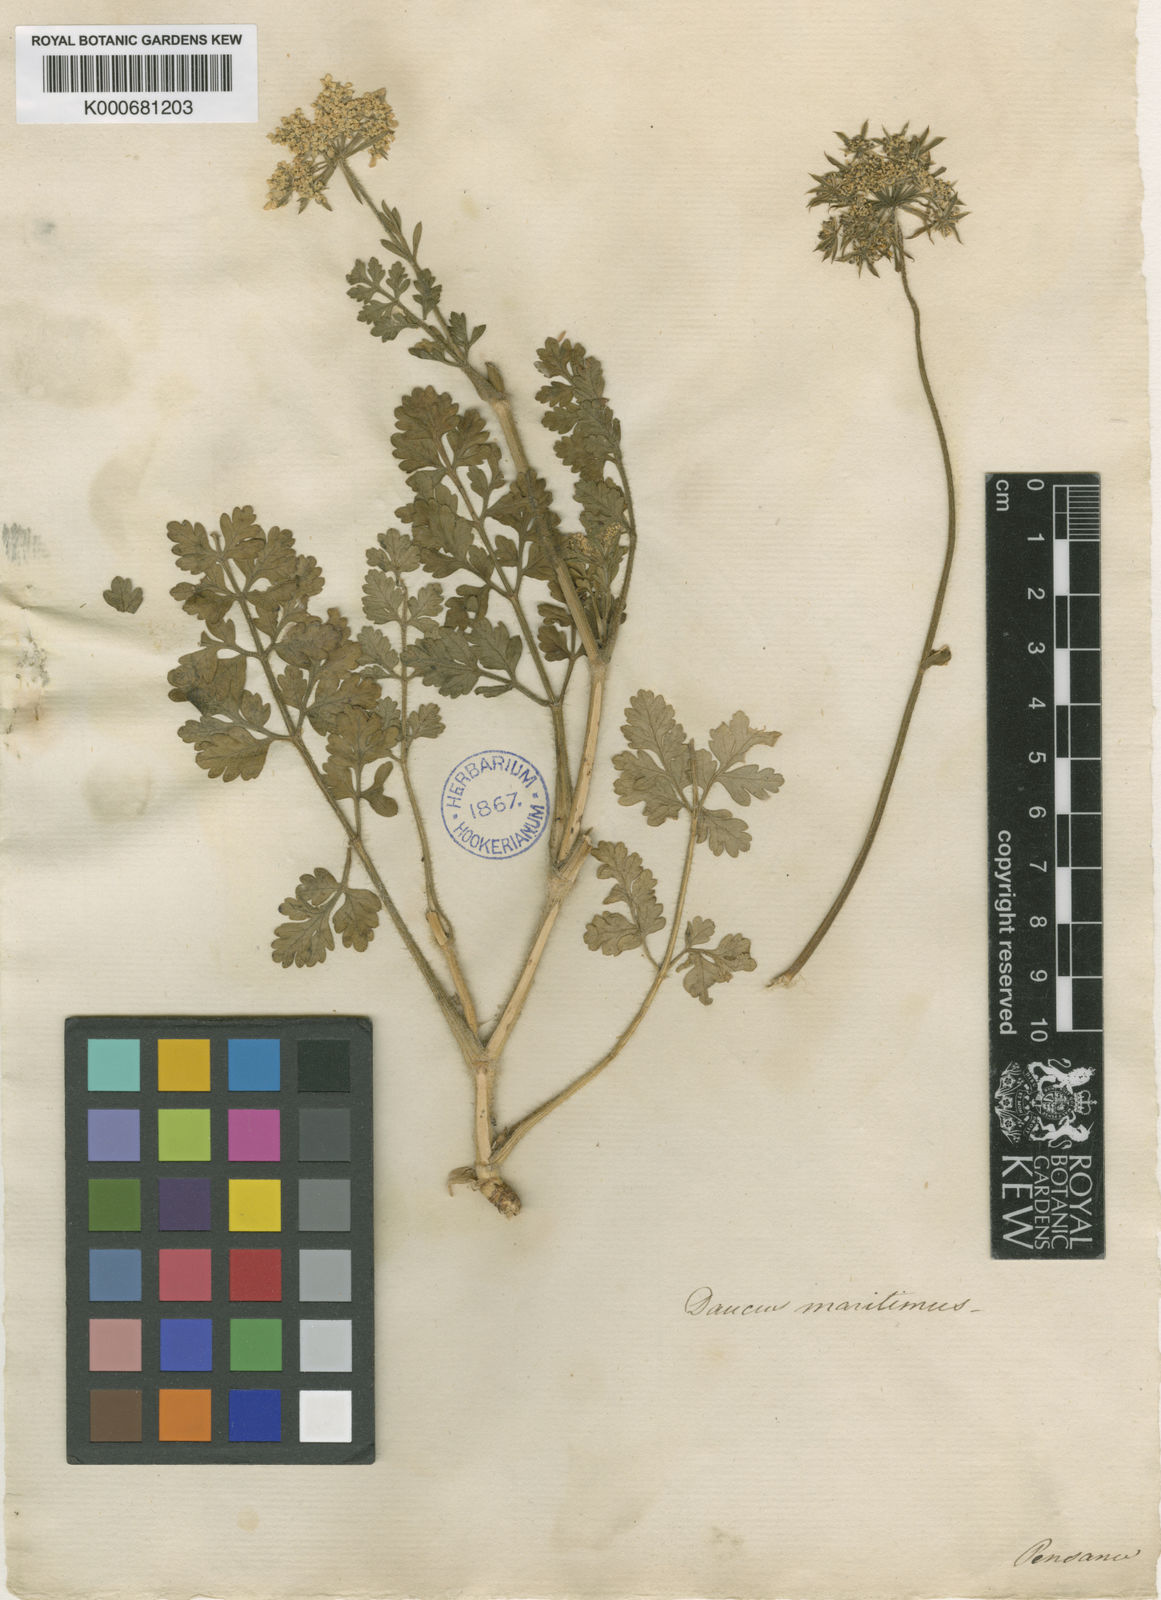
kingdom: Plantae
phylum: Tracheophyta
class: Magnoliopsida
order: Apiales
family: Apiaceae
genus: Daucus
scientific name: Daucus carota
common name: Wild carrot
